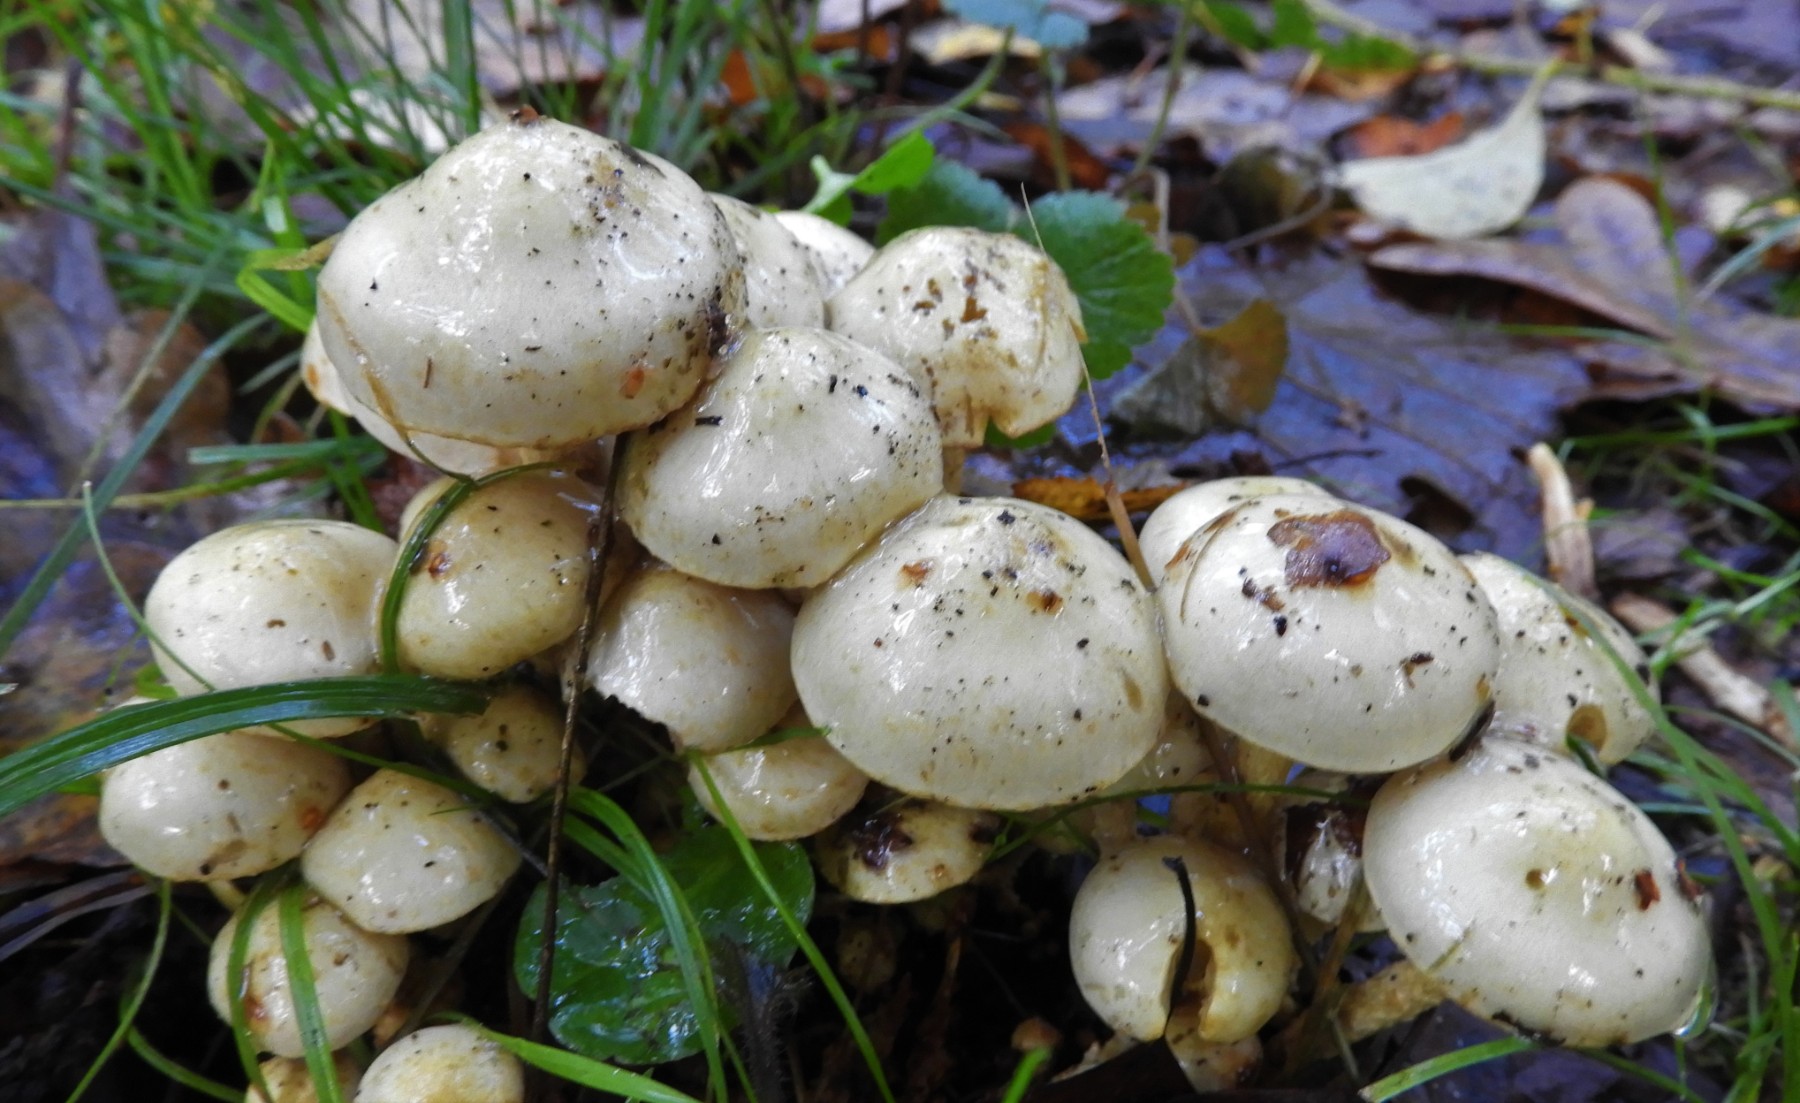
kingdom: Fungi
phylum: Basidiomycota
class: Agaricomycetes
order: Agaricales
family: Strophariaceae
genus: Pholiota
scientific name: Pholiota gummosa
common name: grøngul skælhat
